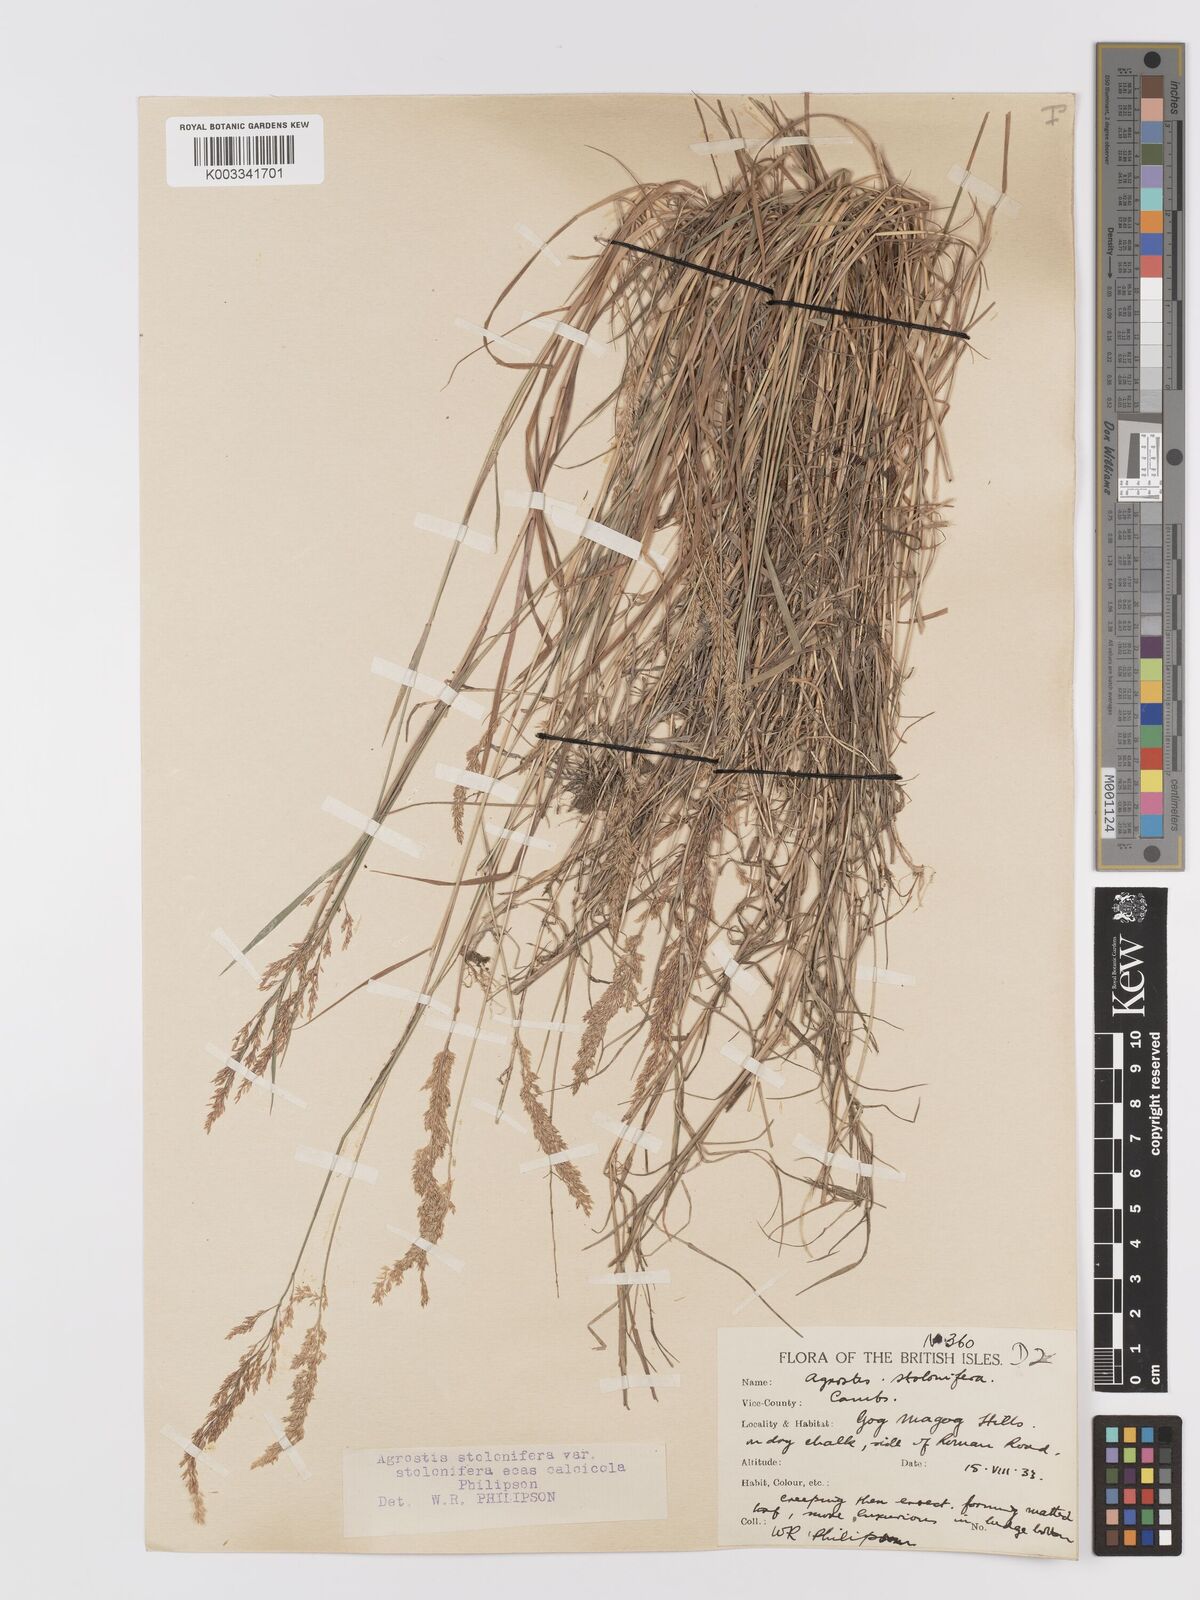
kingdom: Plantae
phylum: Tracheophyta
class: Liliopsida
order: Poales
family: Poaceae
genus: Agrostis
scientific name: Agrostis stolonifera
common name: Creeping bentgrass
